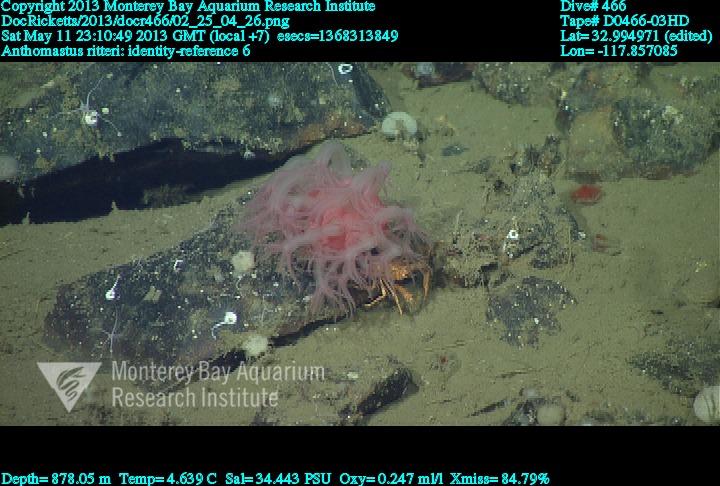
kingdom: Animalia
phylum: Cnidaria
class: Anthozoa
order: Scleralcyonacea
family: Coralliidae
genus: Heteropolypus
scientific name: Heteropolypus ritteri
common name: Ritter's soft coral
